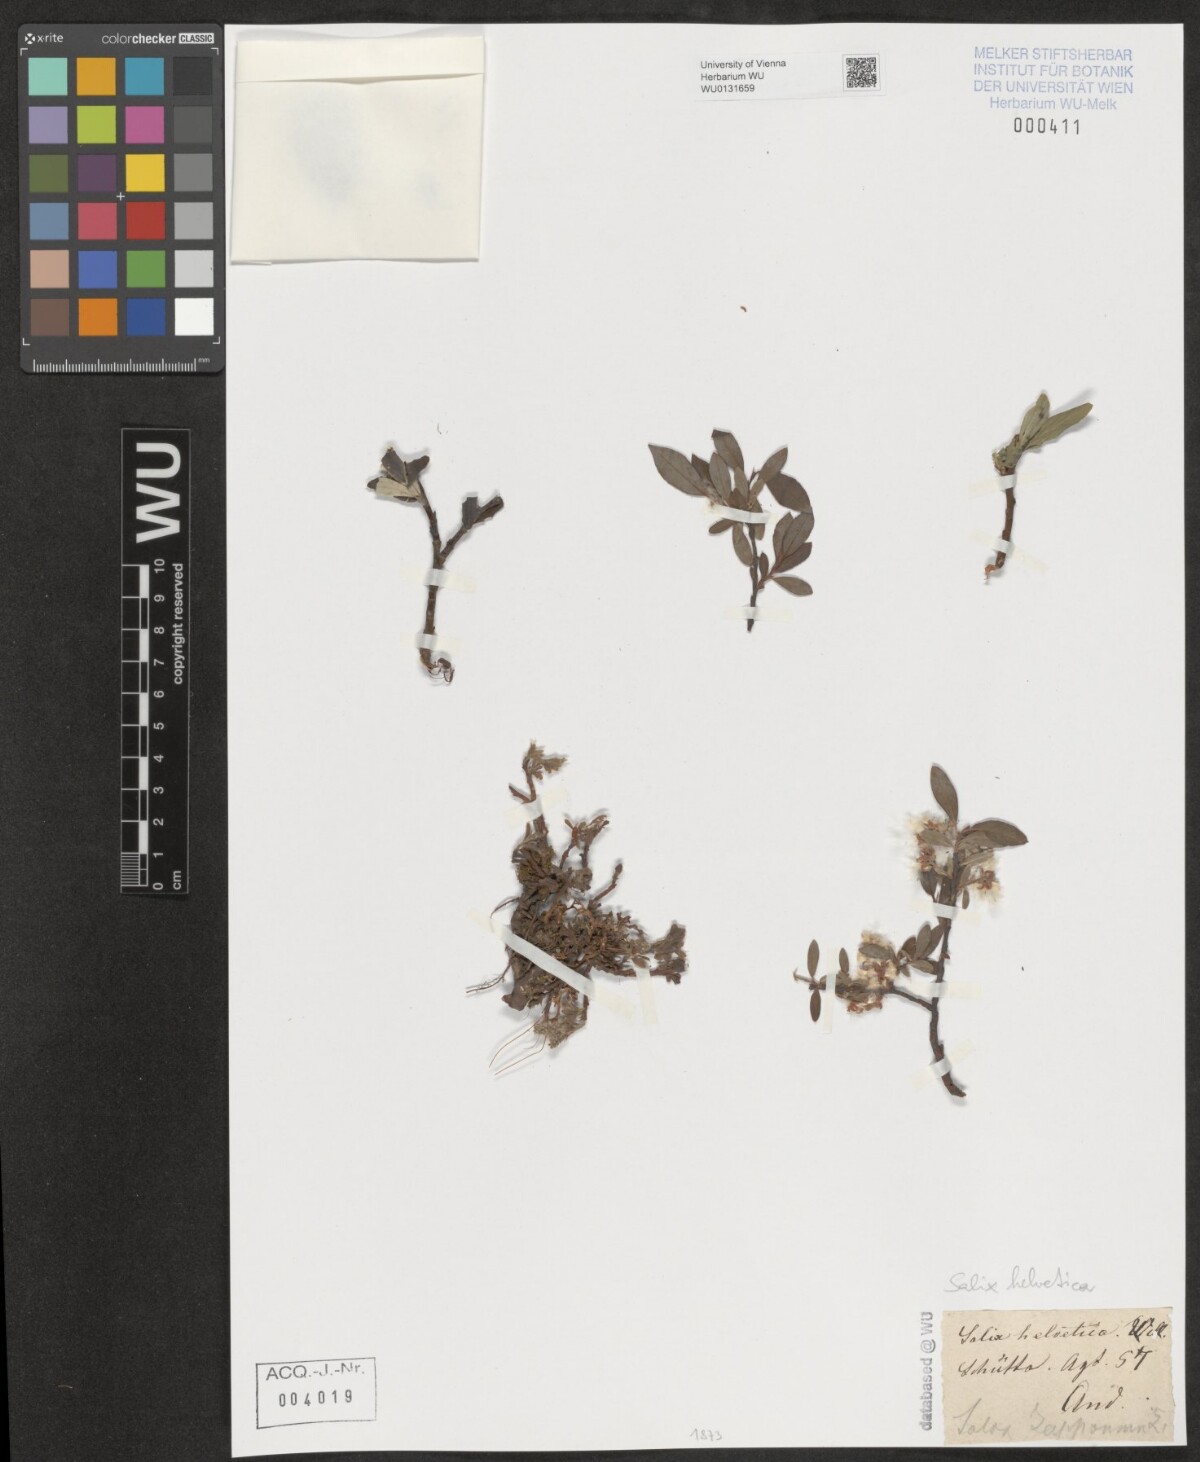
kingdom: Plantae
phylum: Tracheophyta
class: Magnoliopsida
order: Malpighiales
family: Salicaceae
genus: Salix
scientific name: Salix helvetica
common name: Swiss willow
